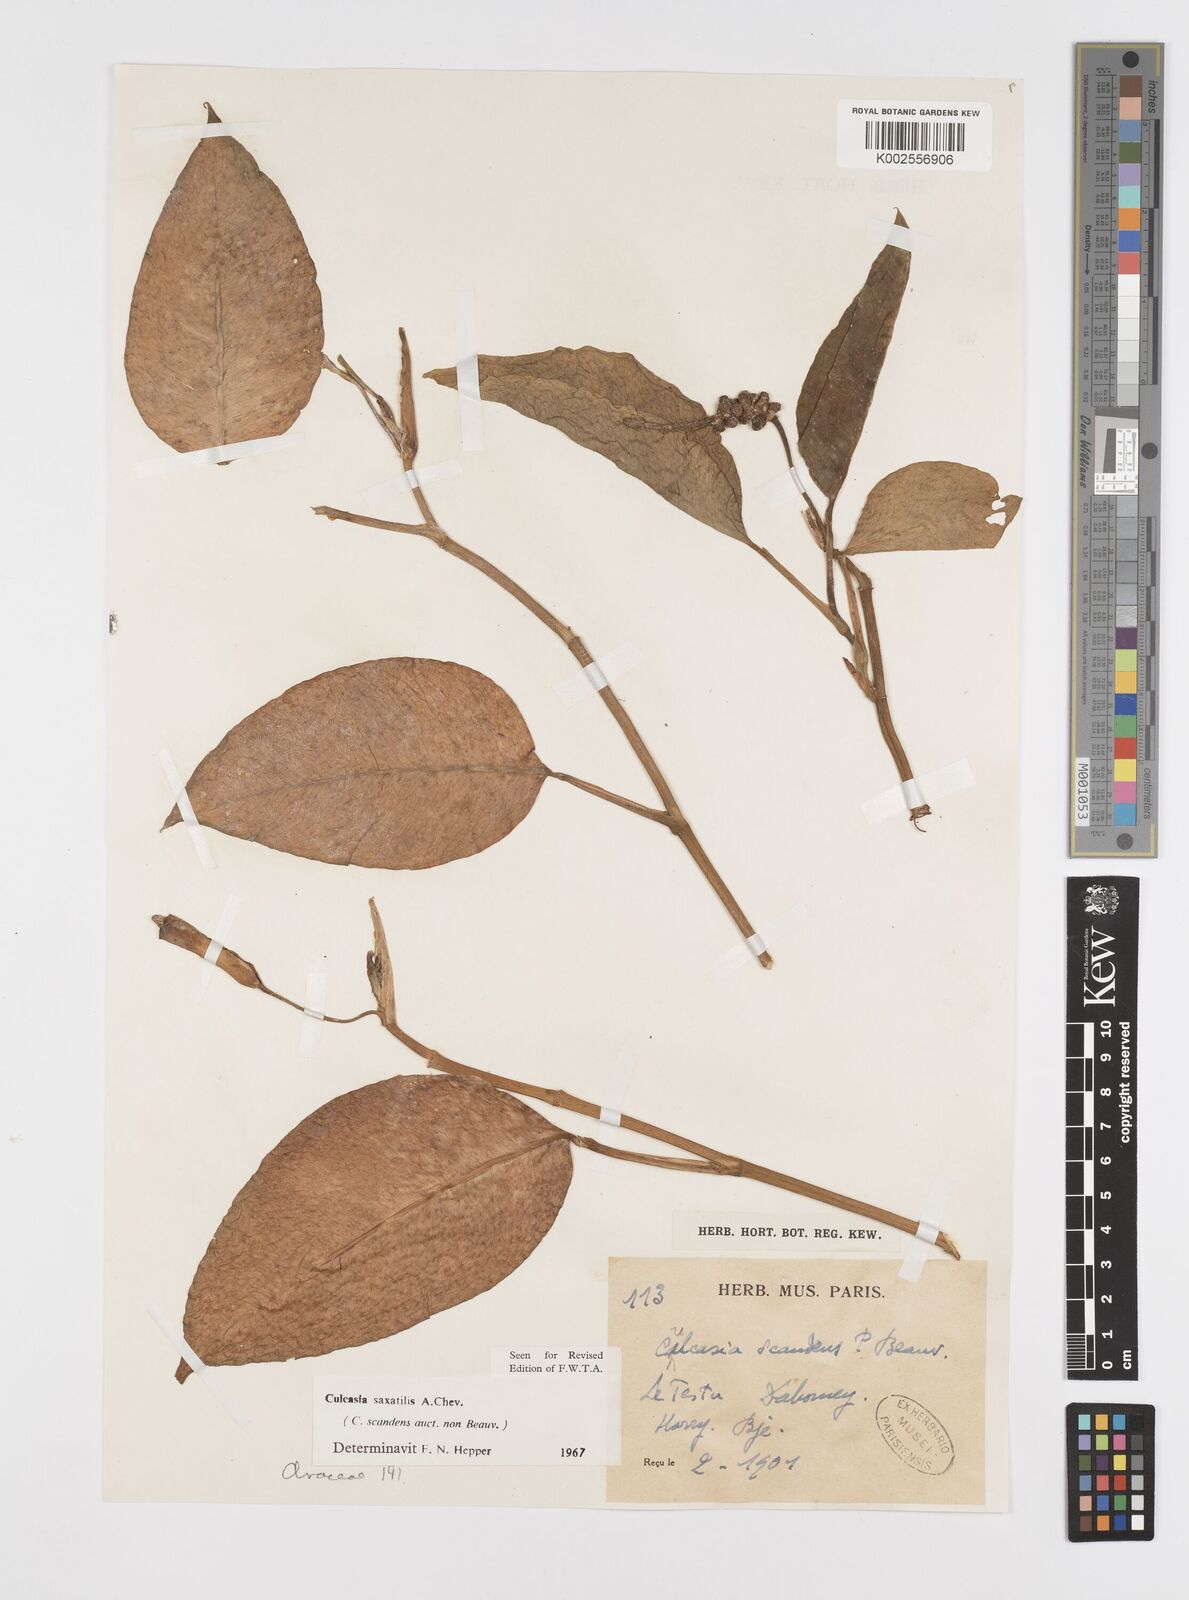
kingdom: Plantae
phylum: Tracheophyta
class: Liliopsida
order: Alismatales
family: Araceae
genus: Culcasia
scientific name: Culcasia scandens
